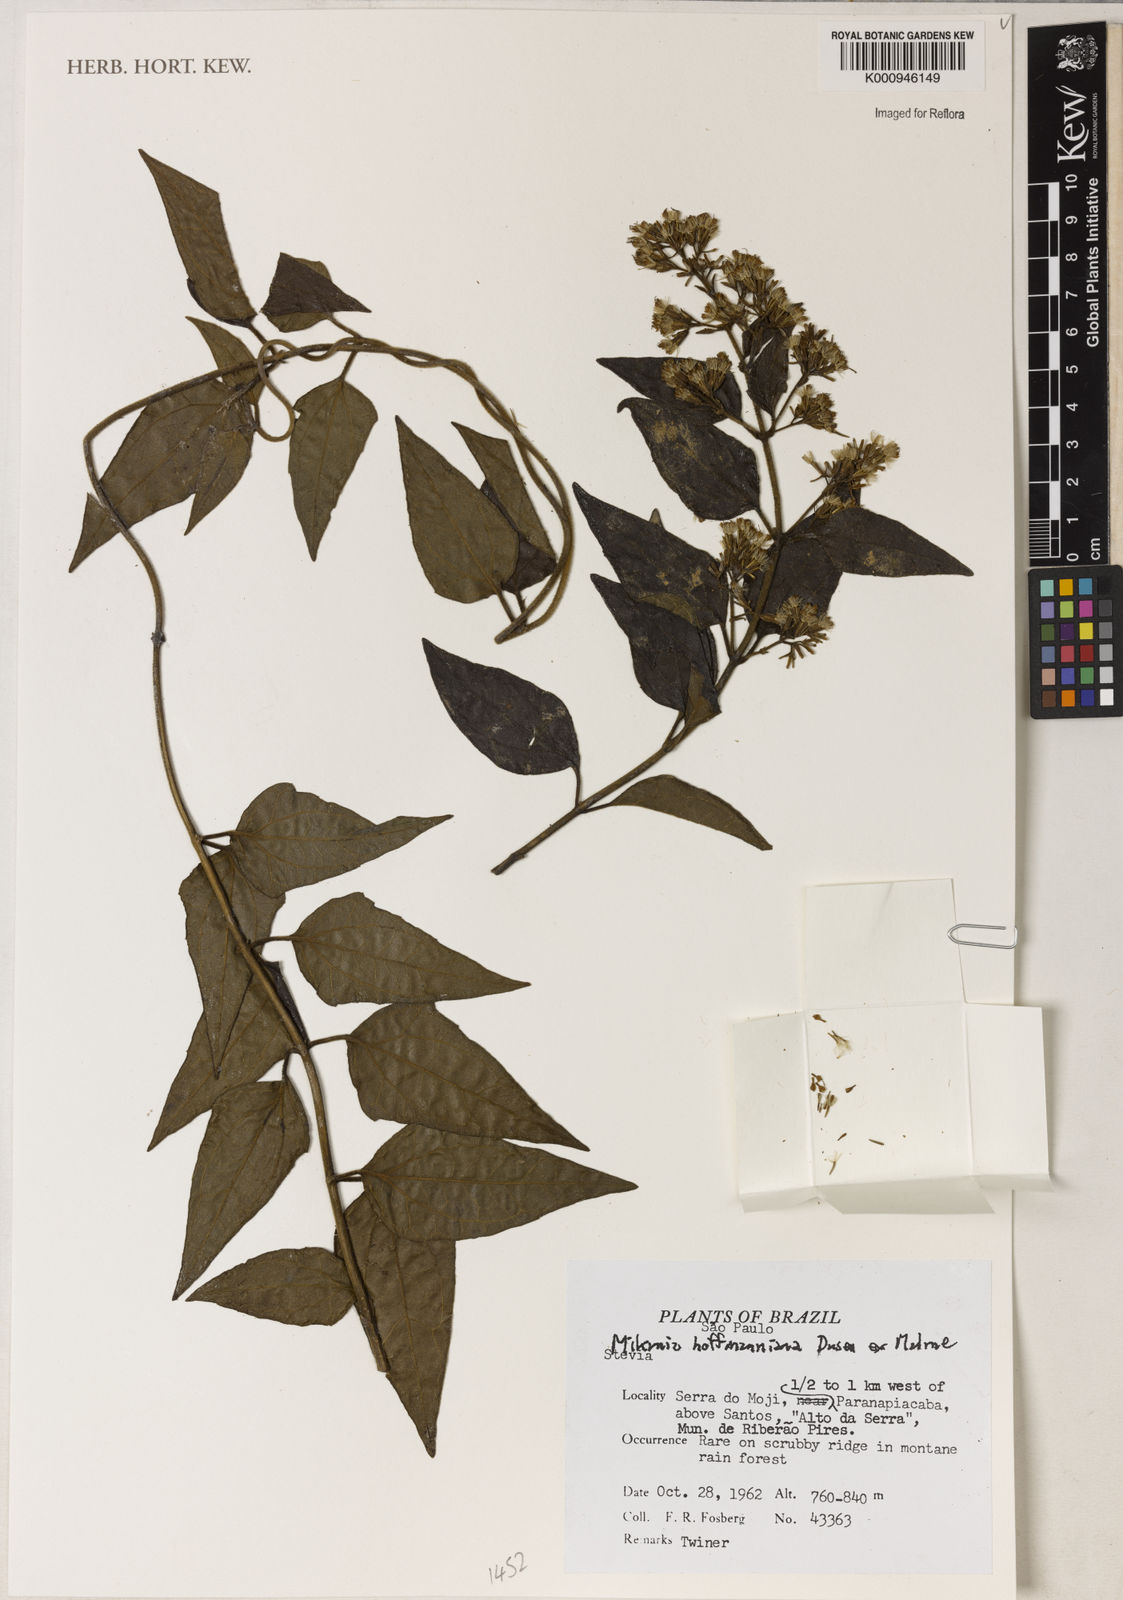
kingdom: Plantae
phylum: Tracheophyta
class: Magnoliopsida
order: Asterales
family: Asteraceae
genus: Mikania
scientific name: Mikania
